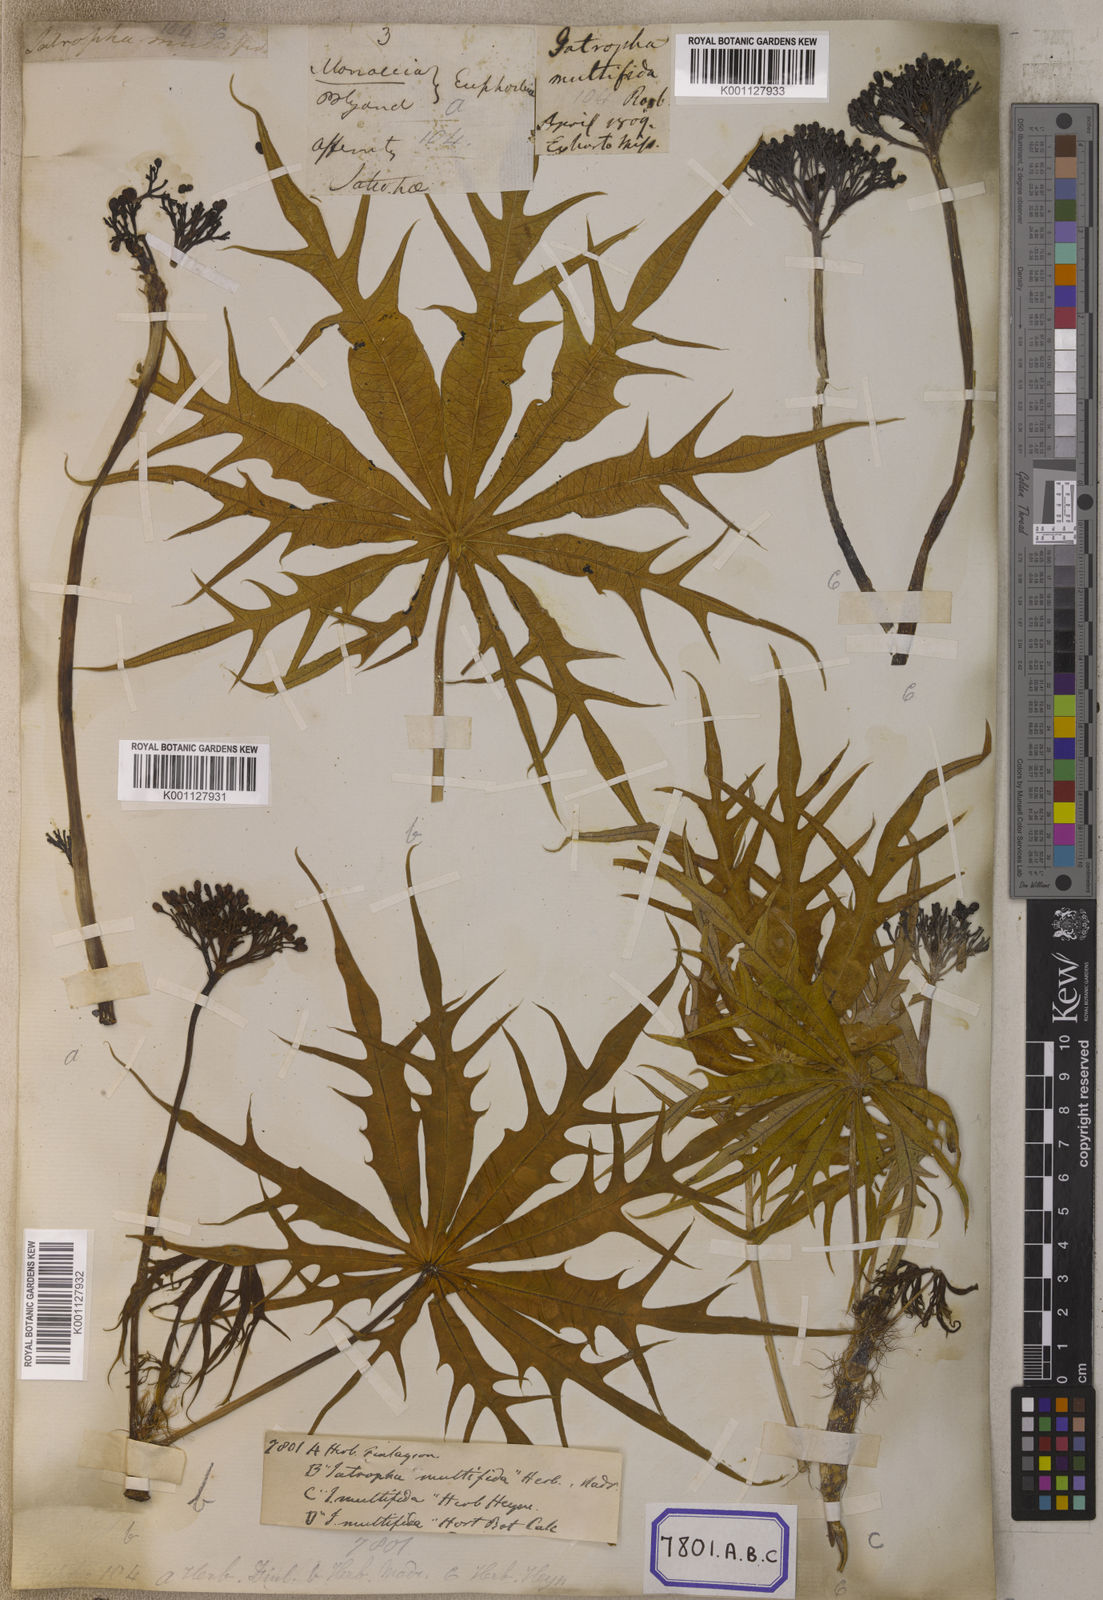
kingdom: Plantae
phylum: Tracheophyta
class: Magnoliopsida
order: Malpighiales
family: Euphorbiaceae
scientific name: Euphorbiaceae
